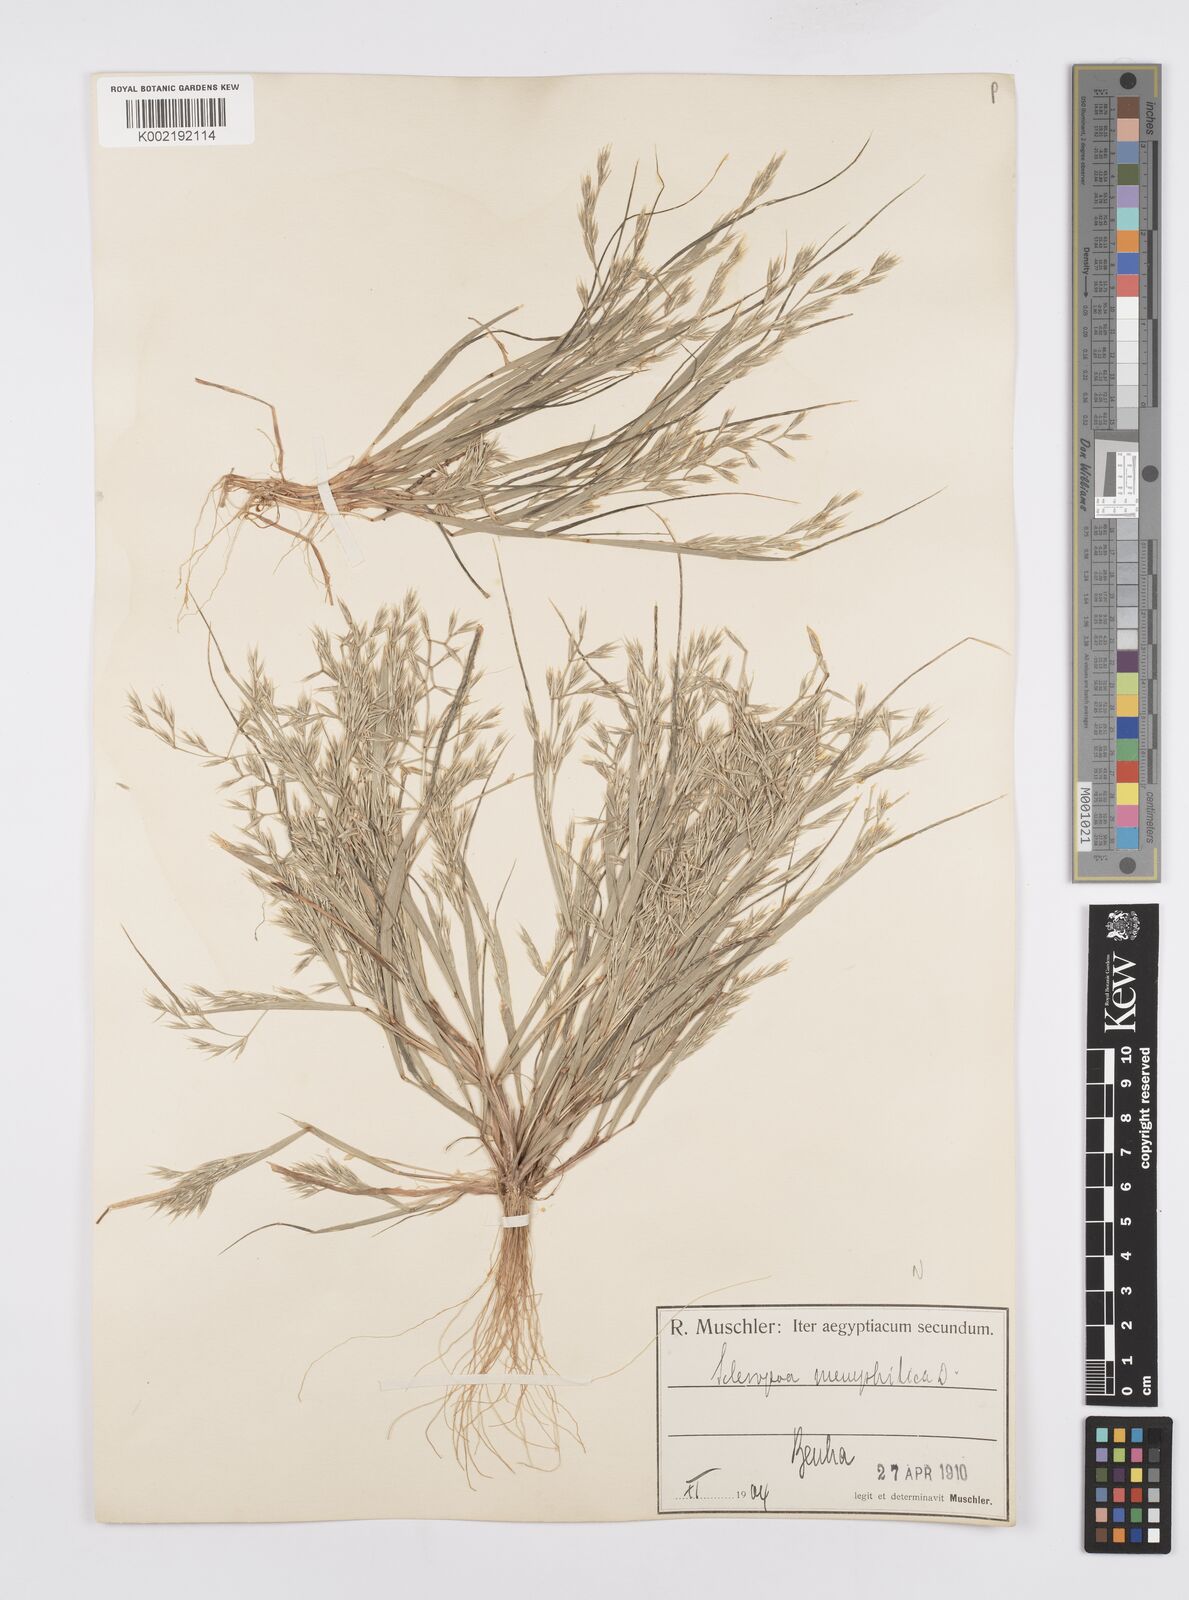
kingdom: Plantae
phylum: Tracheophyta
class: Liliopsida
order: Poales
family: Poaceae
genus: Cutandia
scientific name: Cutandia memphitica
